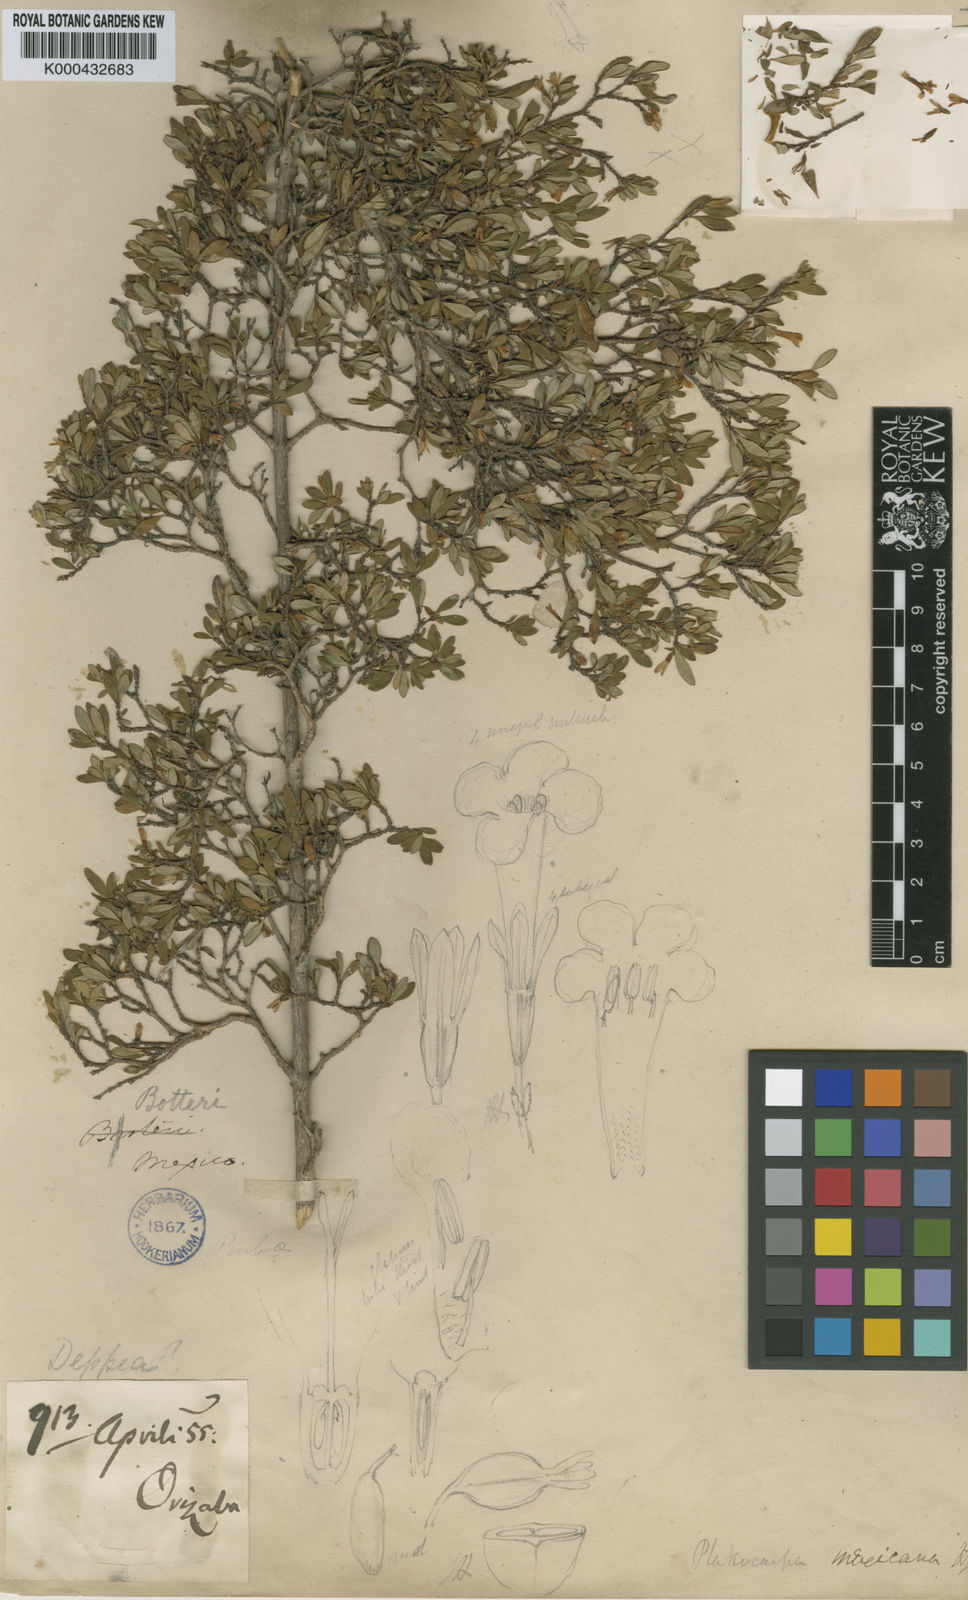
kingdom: Plantae
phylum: Tracheophyta
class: Magnoliopsida
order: Gentianales
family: Rubiaceae
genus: Placocarpa
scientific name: Placocarpa mexicana
